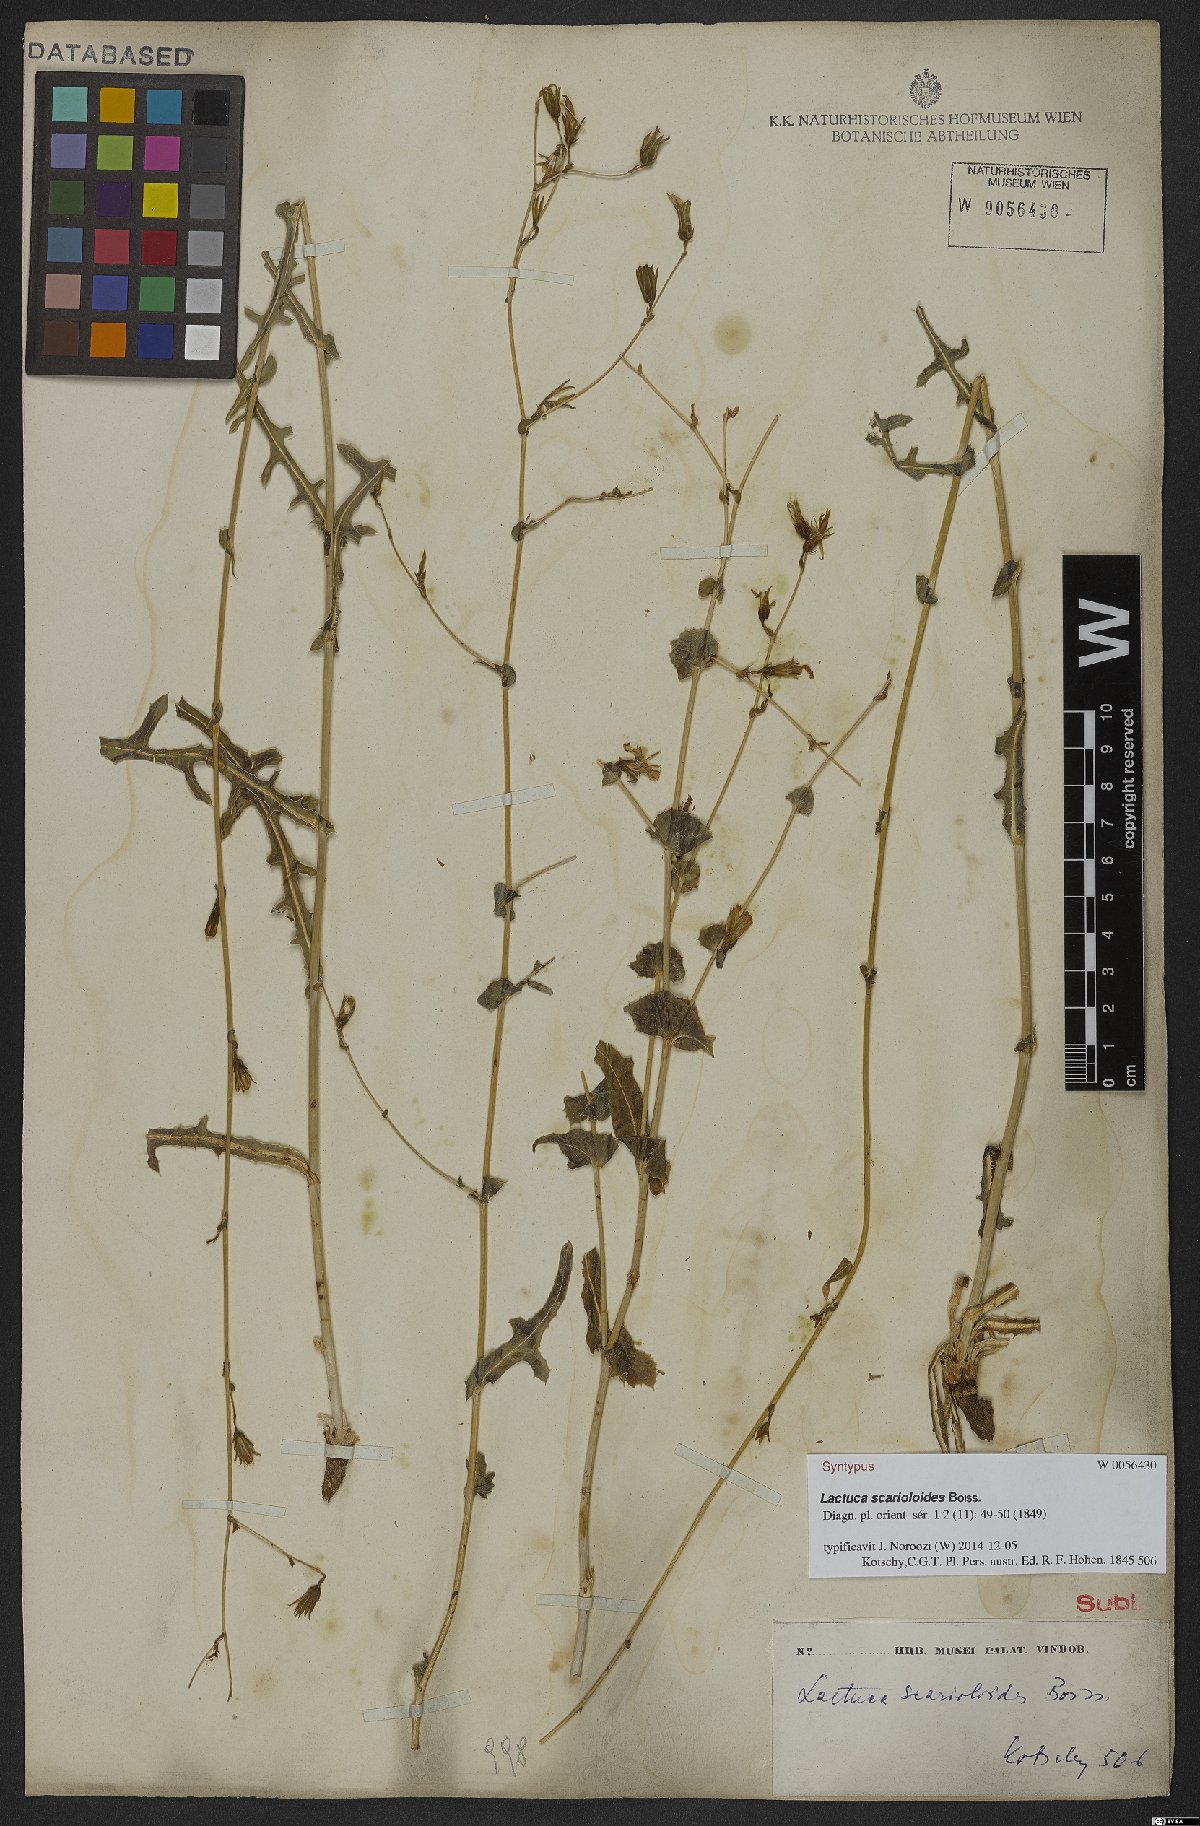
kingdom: Plantae
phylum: Tracheophyta
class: Magnoliopsida
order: Asterales
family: Asteraceae
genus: Lactuca
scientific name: Lactuca scarioloides
